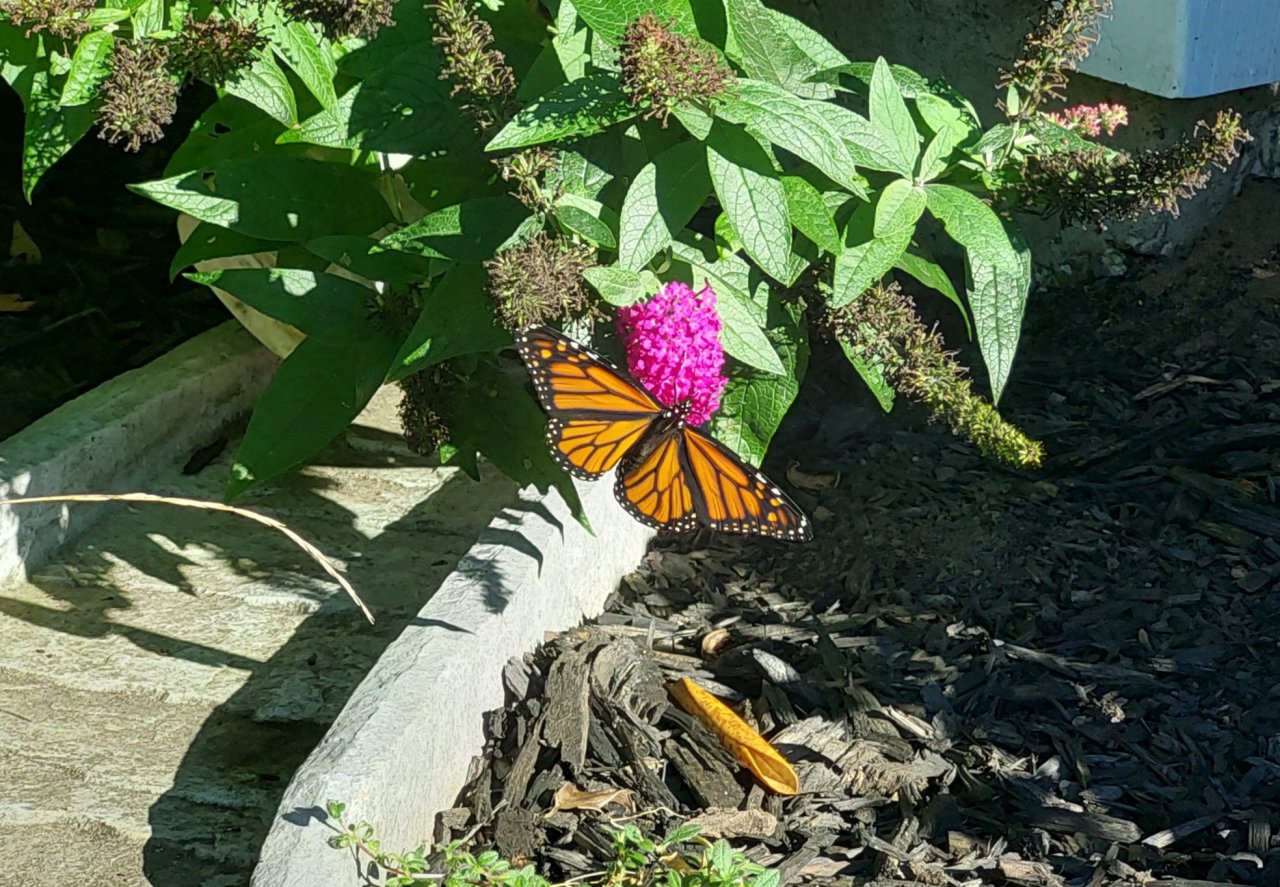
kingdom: Animalia
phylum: Arthropoda
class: Insecta
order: Lepidoptera
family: Nymphalidae
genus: Danaus
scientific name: Danaus plexippus
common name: Monarch
